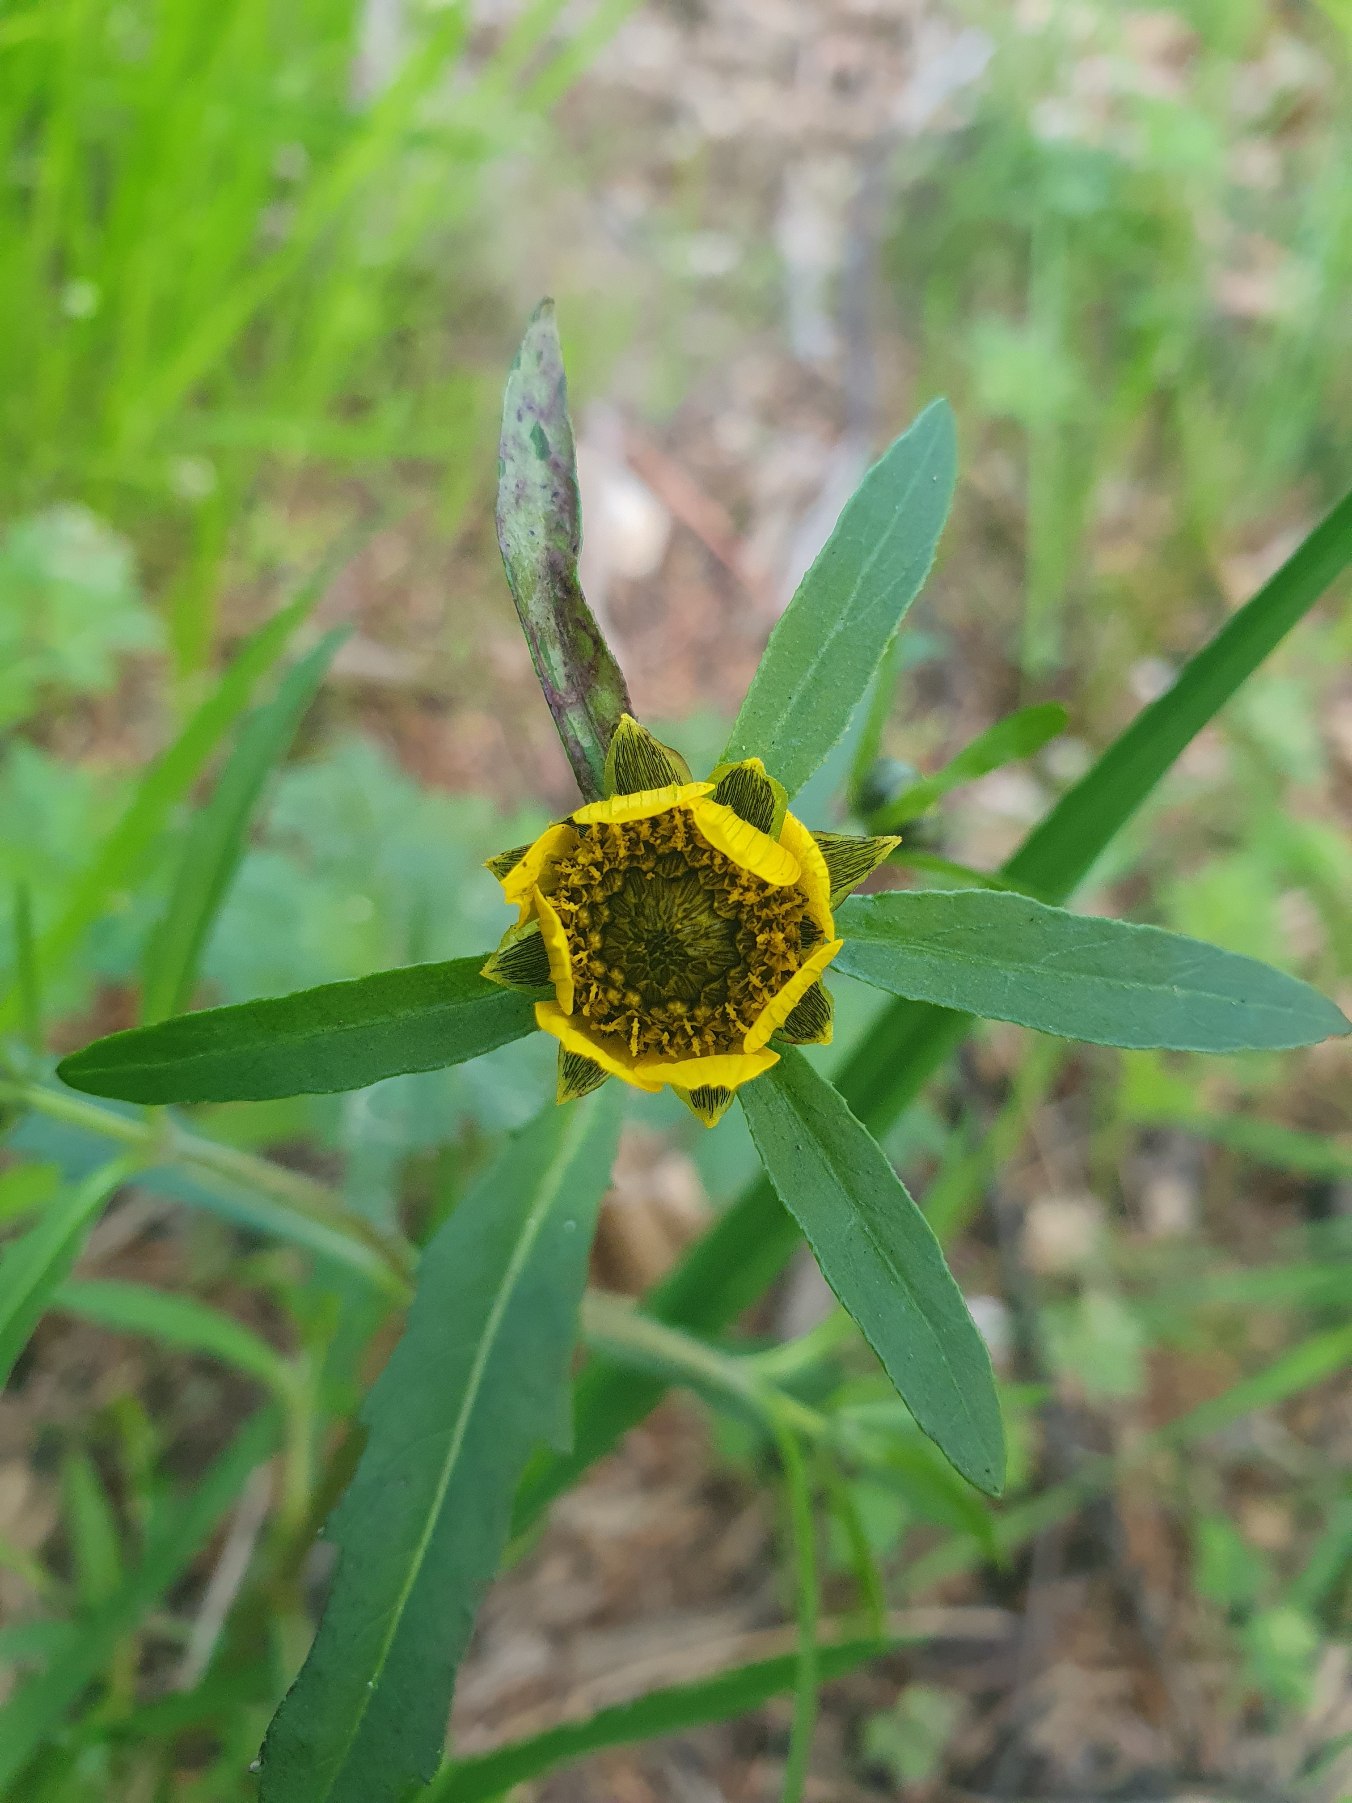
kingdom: Plantae
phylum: Tracheophyta
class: Magnoliopsida
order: Asterales
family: Asteraceae
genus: Bidens
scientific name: Bidens cernua
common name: Nikkende brøndsel
